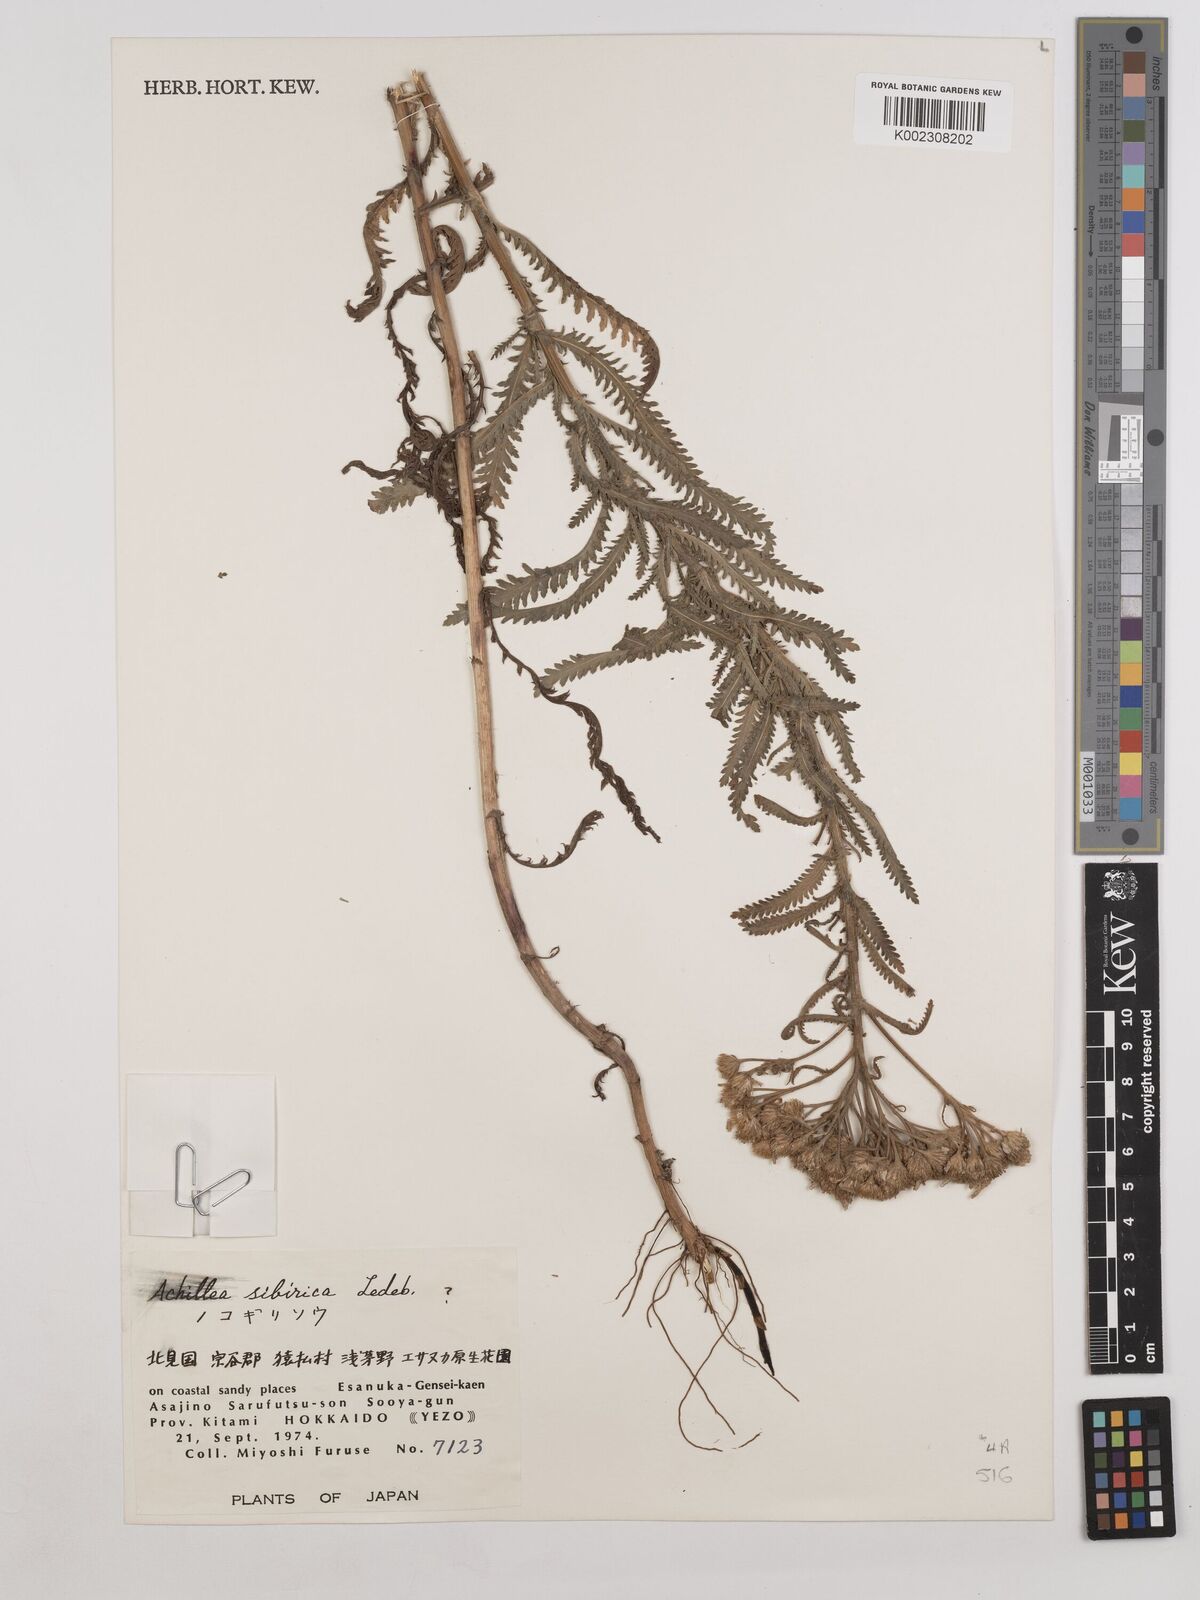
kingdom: Plantae
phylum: Tracheophyta
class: Magnoliopsida
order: Asterales
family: Asteraceae
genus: Achillea
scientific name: Achillea alpina
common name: Siberian yarrow
